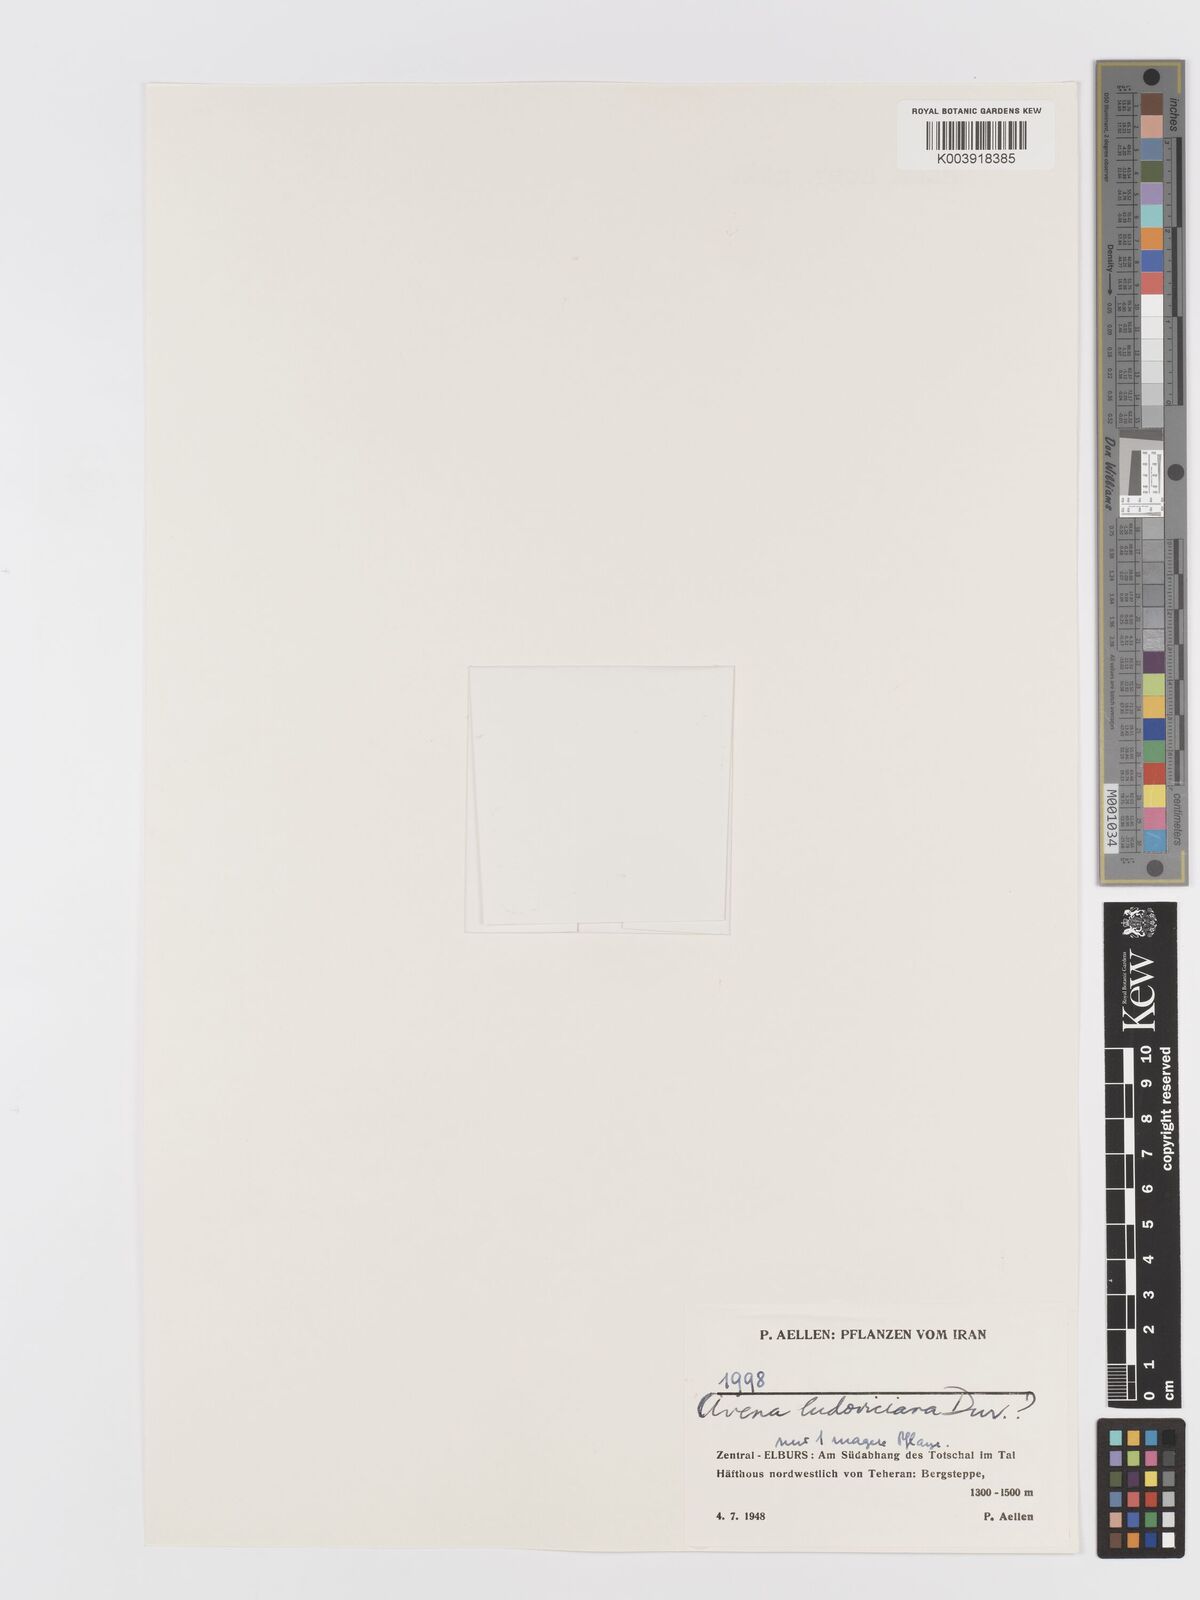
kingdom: Plantae
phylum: Tracheophyta
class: Liliopsida
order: Poales
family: Poaceae
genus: Avena
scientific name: Avena sterilis
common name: Animated oat
